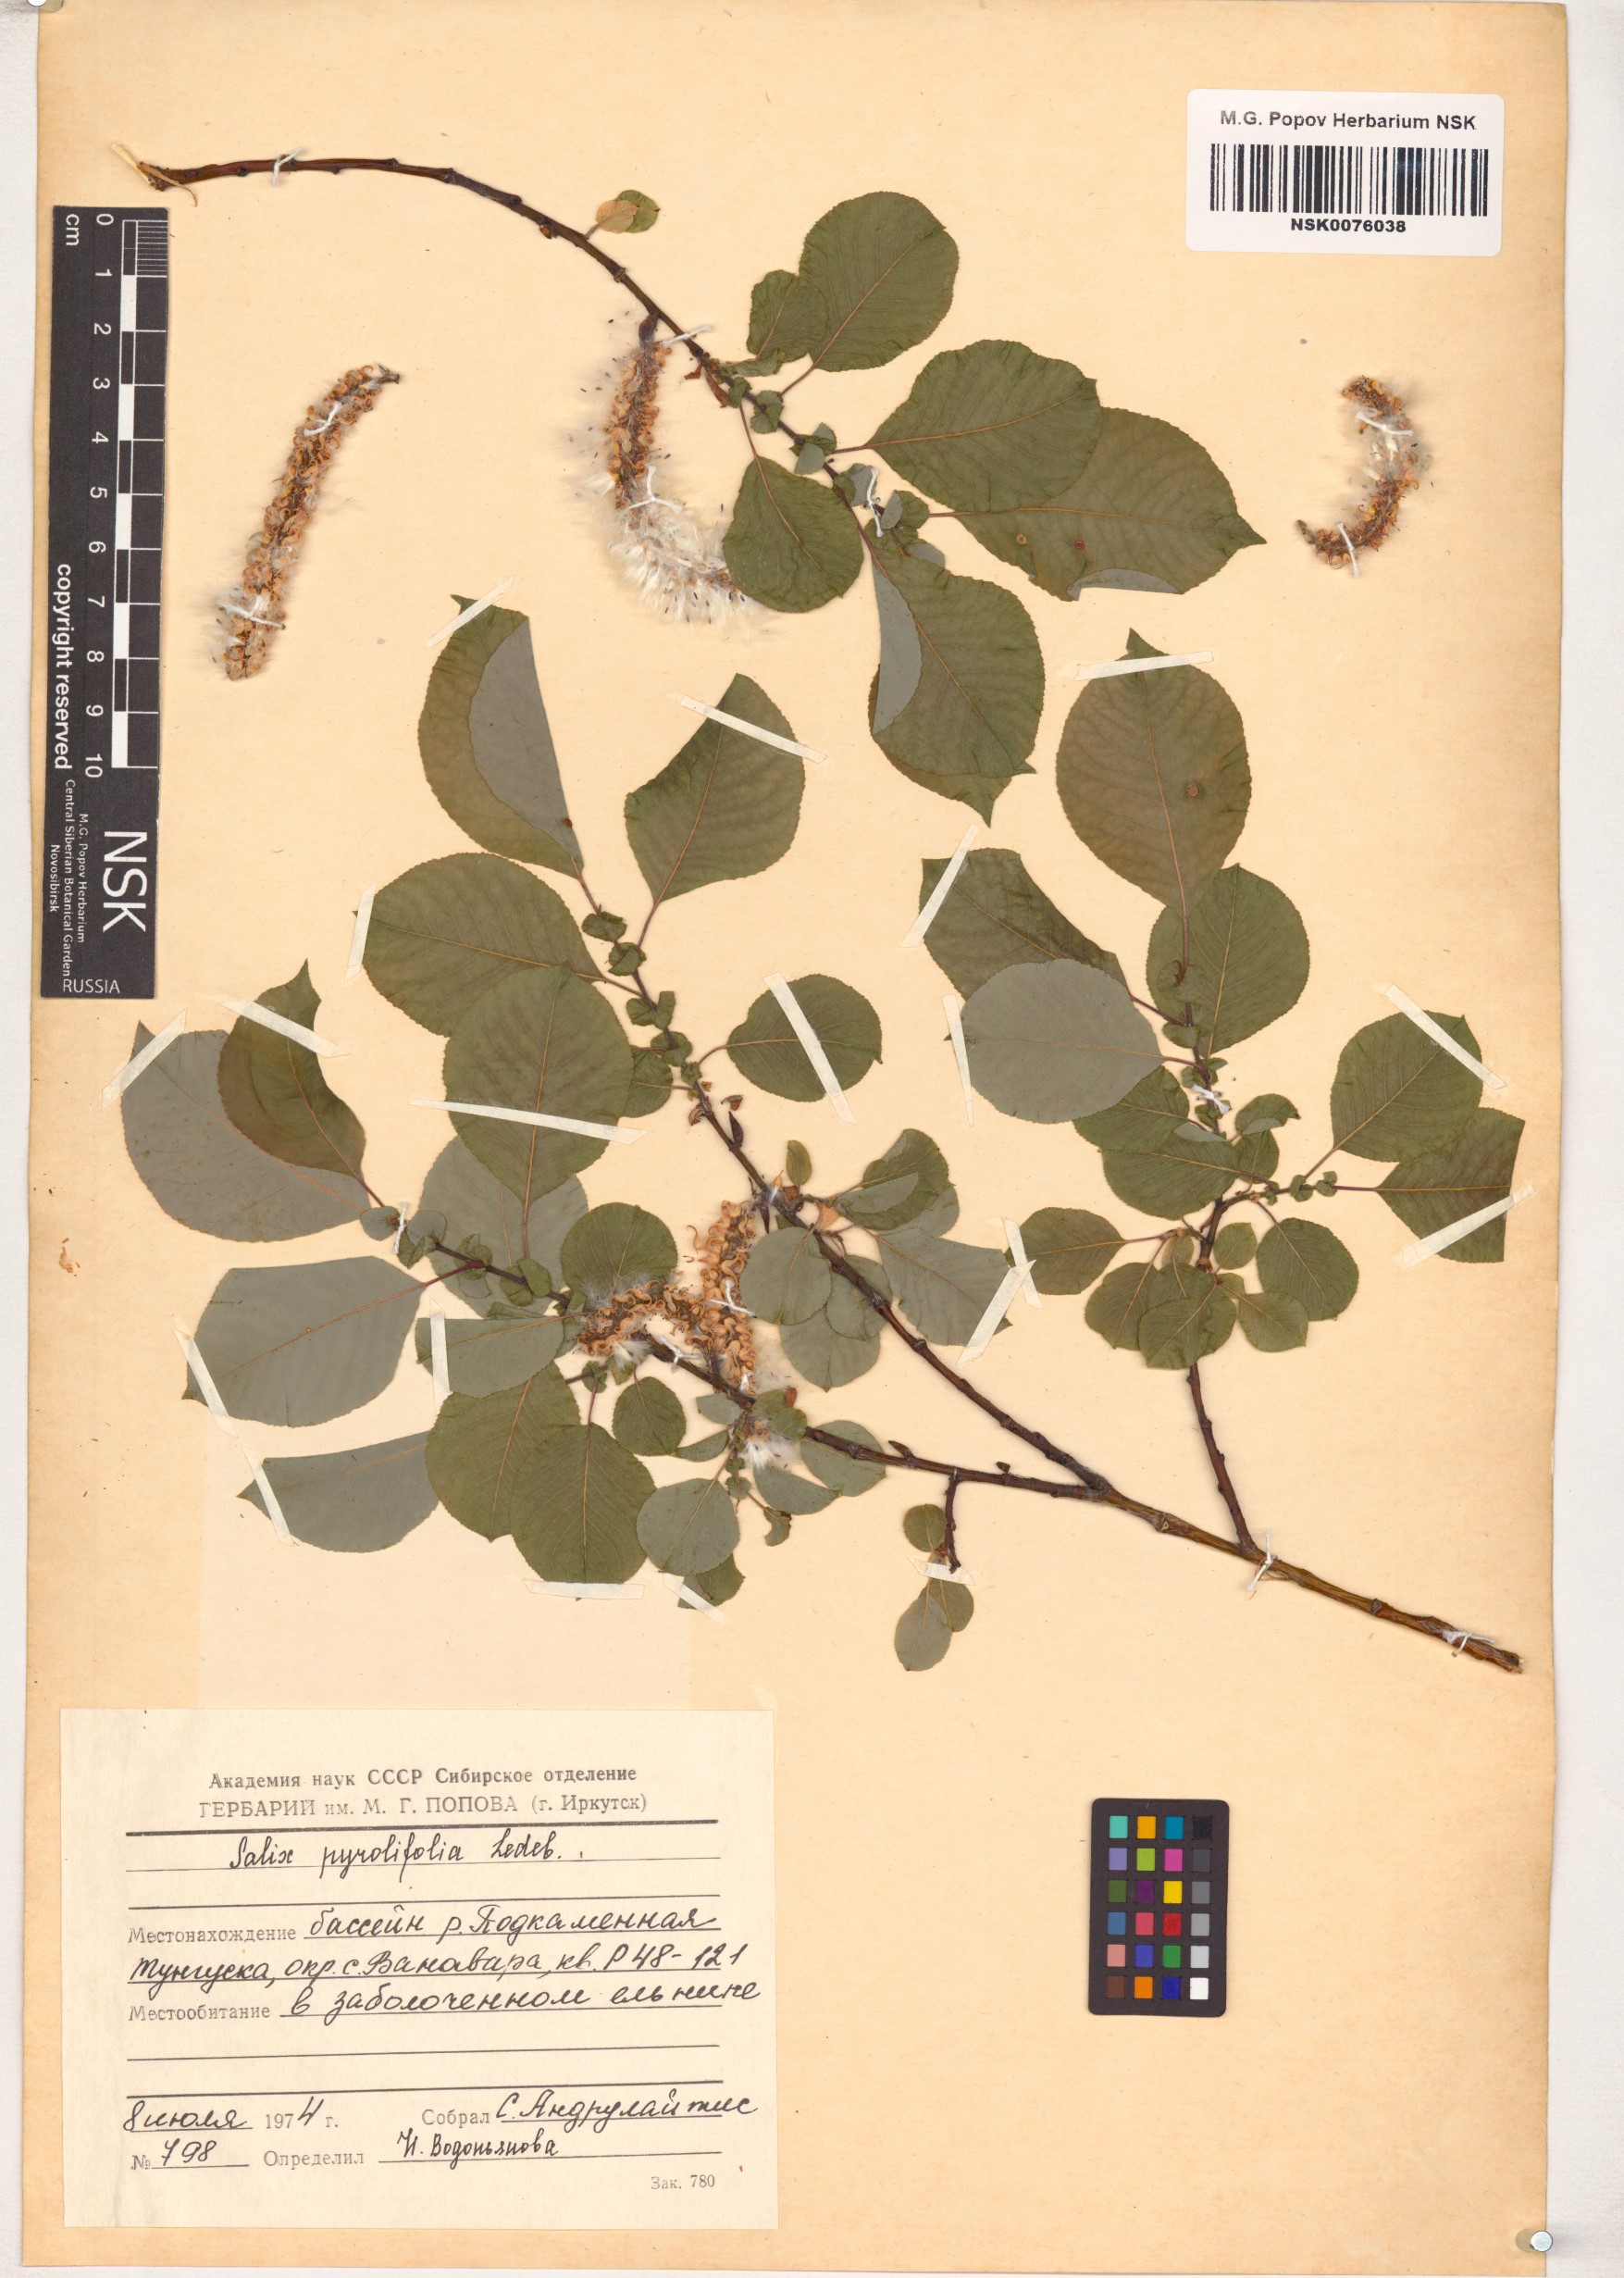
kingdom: Plantae
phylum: Tracheophyta
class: Magnoliopsida
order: Malpighiales
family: Salicaceae
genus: Salix
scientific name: Salix pyrolifolia
